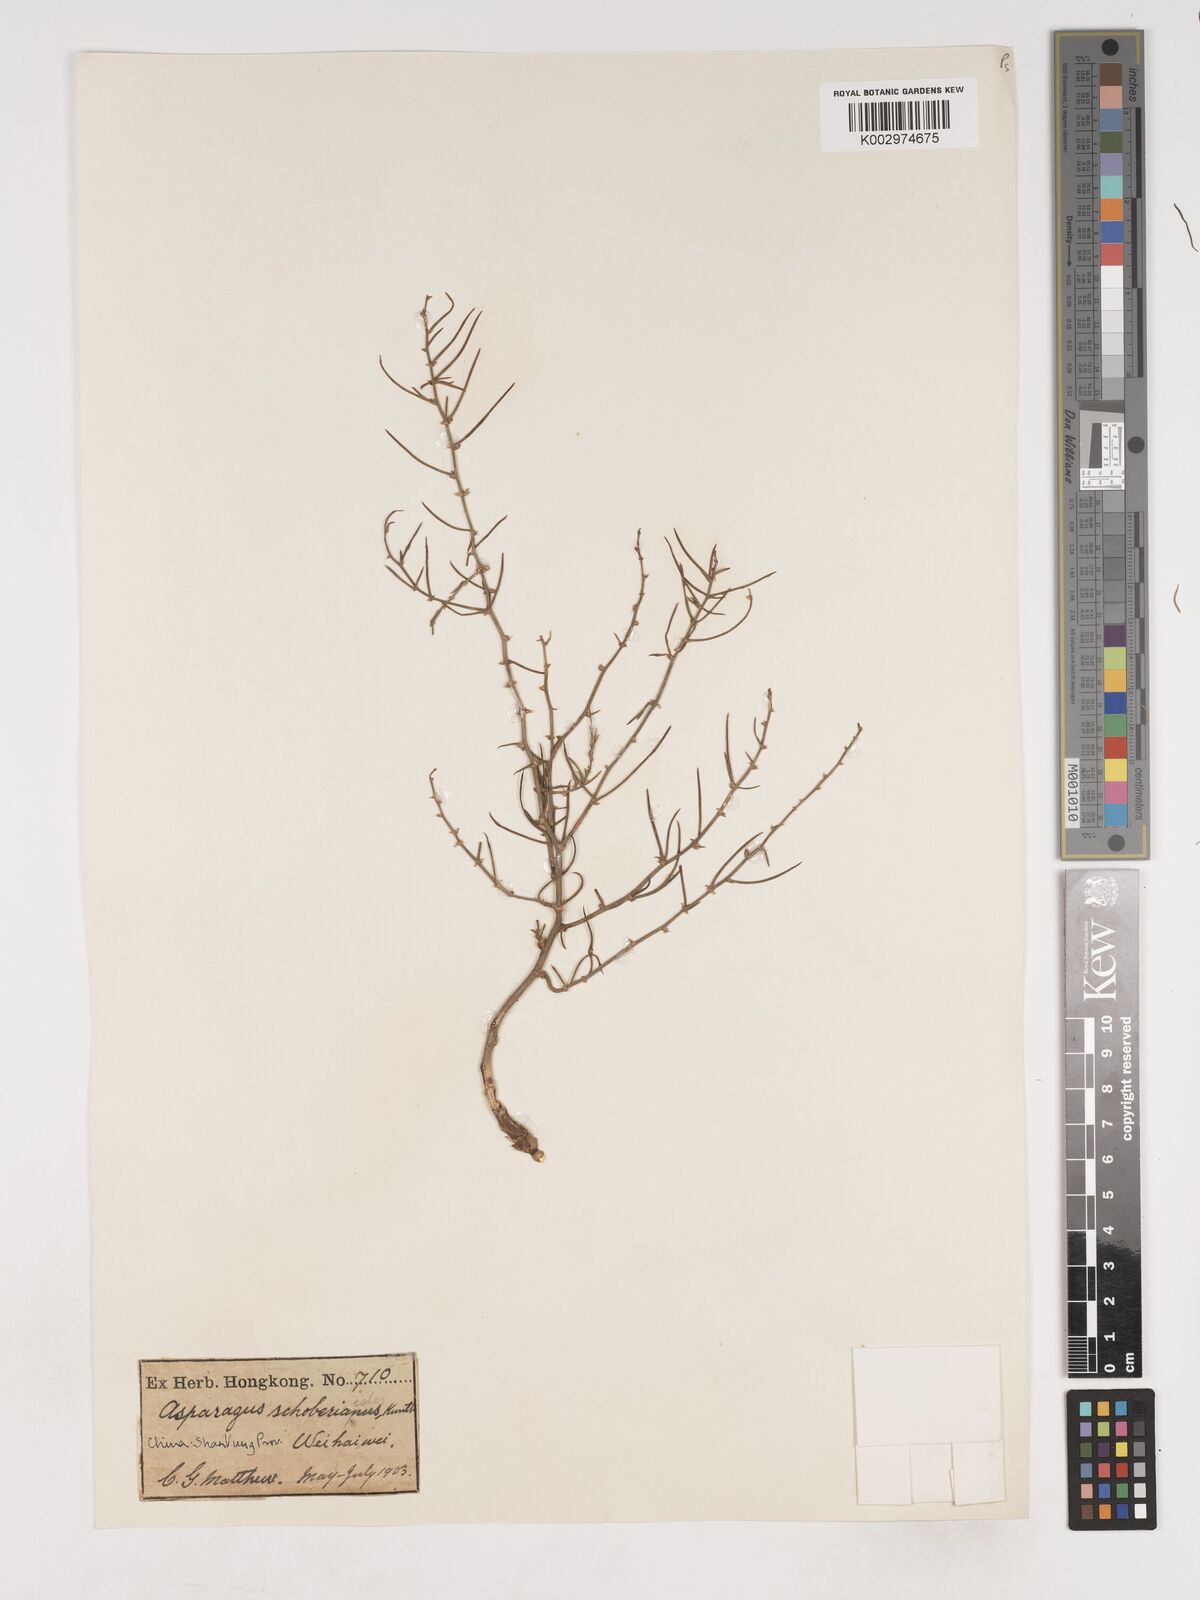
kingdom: Plantae
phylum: Tracheophyta
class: Liliopsida
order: Asparagales
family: Asparagaceae
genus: Asparagus
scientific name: Asparagus schoberioides
